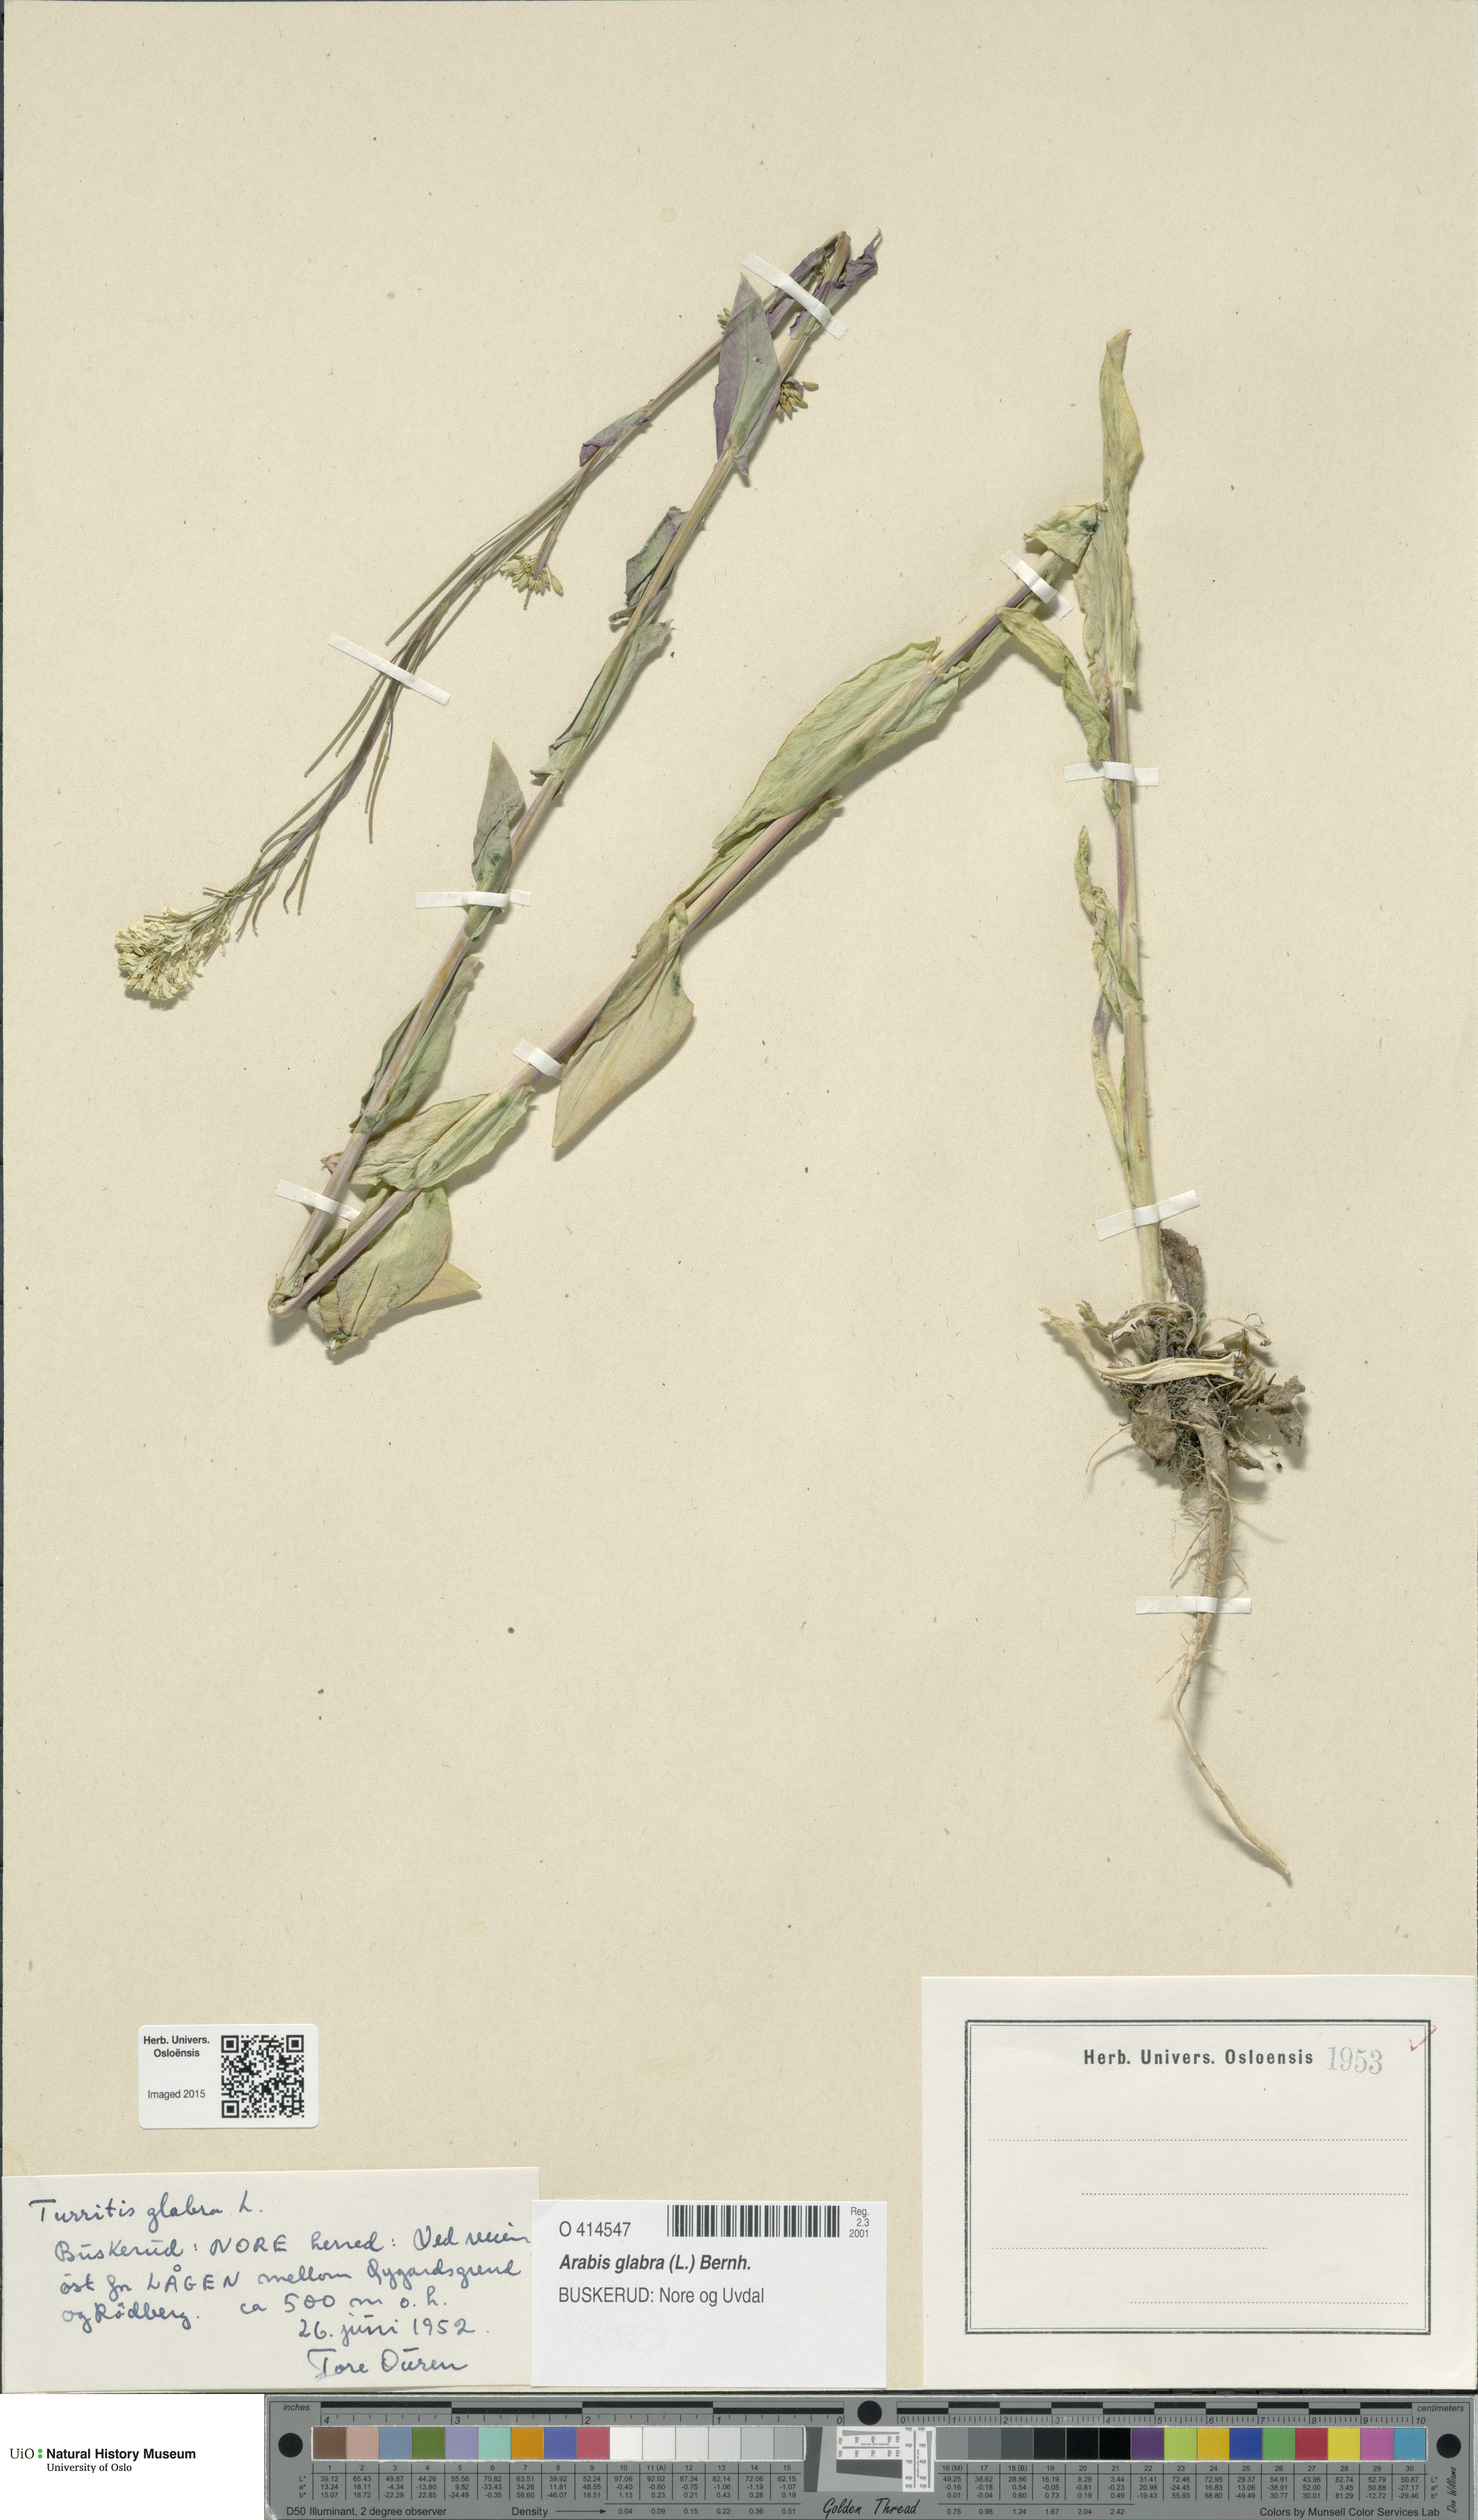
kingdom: Plantae
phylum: Tracheophyta
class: Magnoliopsida
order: Brassicales
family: Brassicaceae
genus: Turritis
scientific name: Turritis glabra
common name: Tower rockcress
